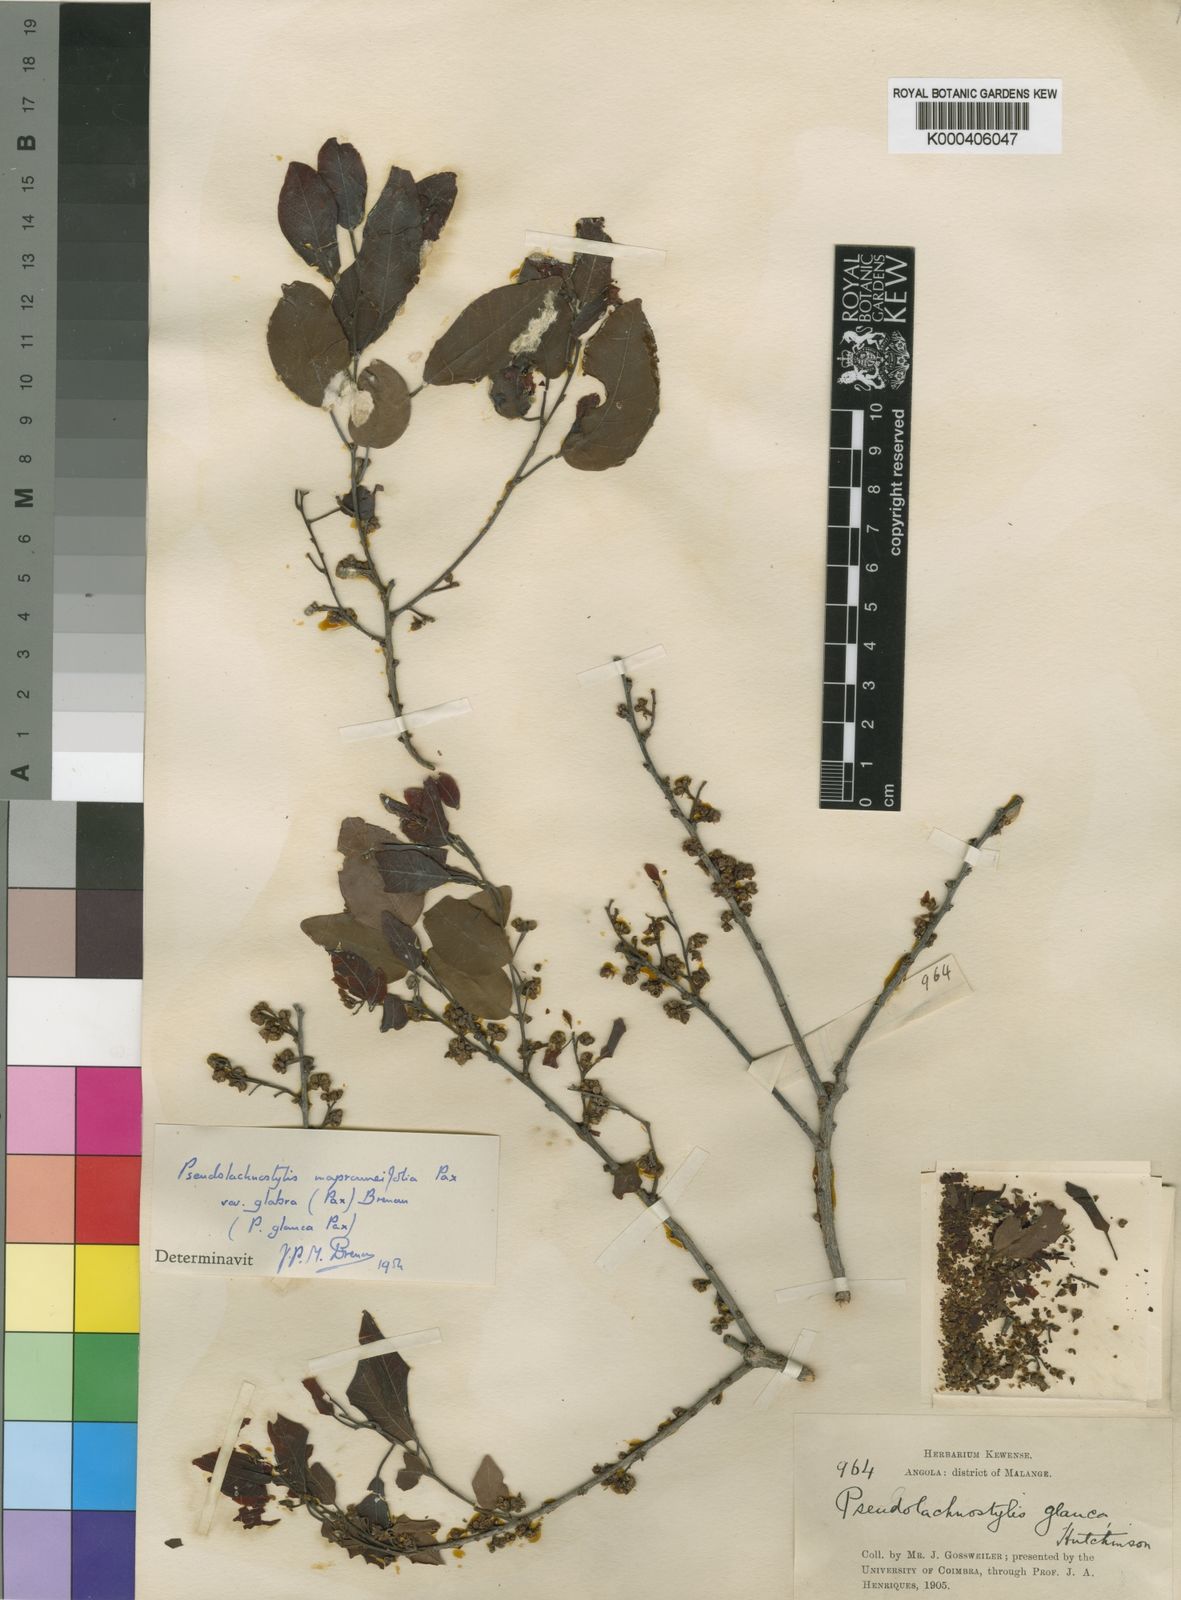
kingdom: Plantae
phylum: Tracheophyta
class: Magnoliopsida
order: Malpighiales
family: Phyllanthaceae
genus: Pseudolachnostylis
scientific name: Pseudolachnostylis maprouneifolia
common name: Kudu berry
